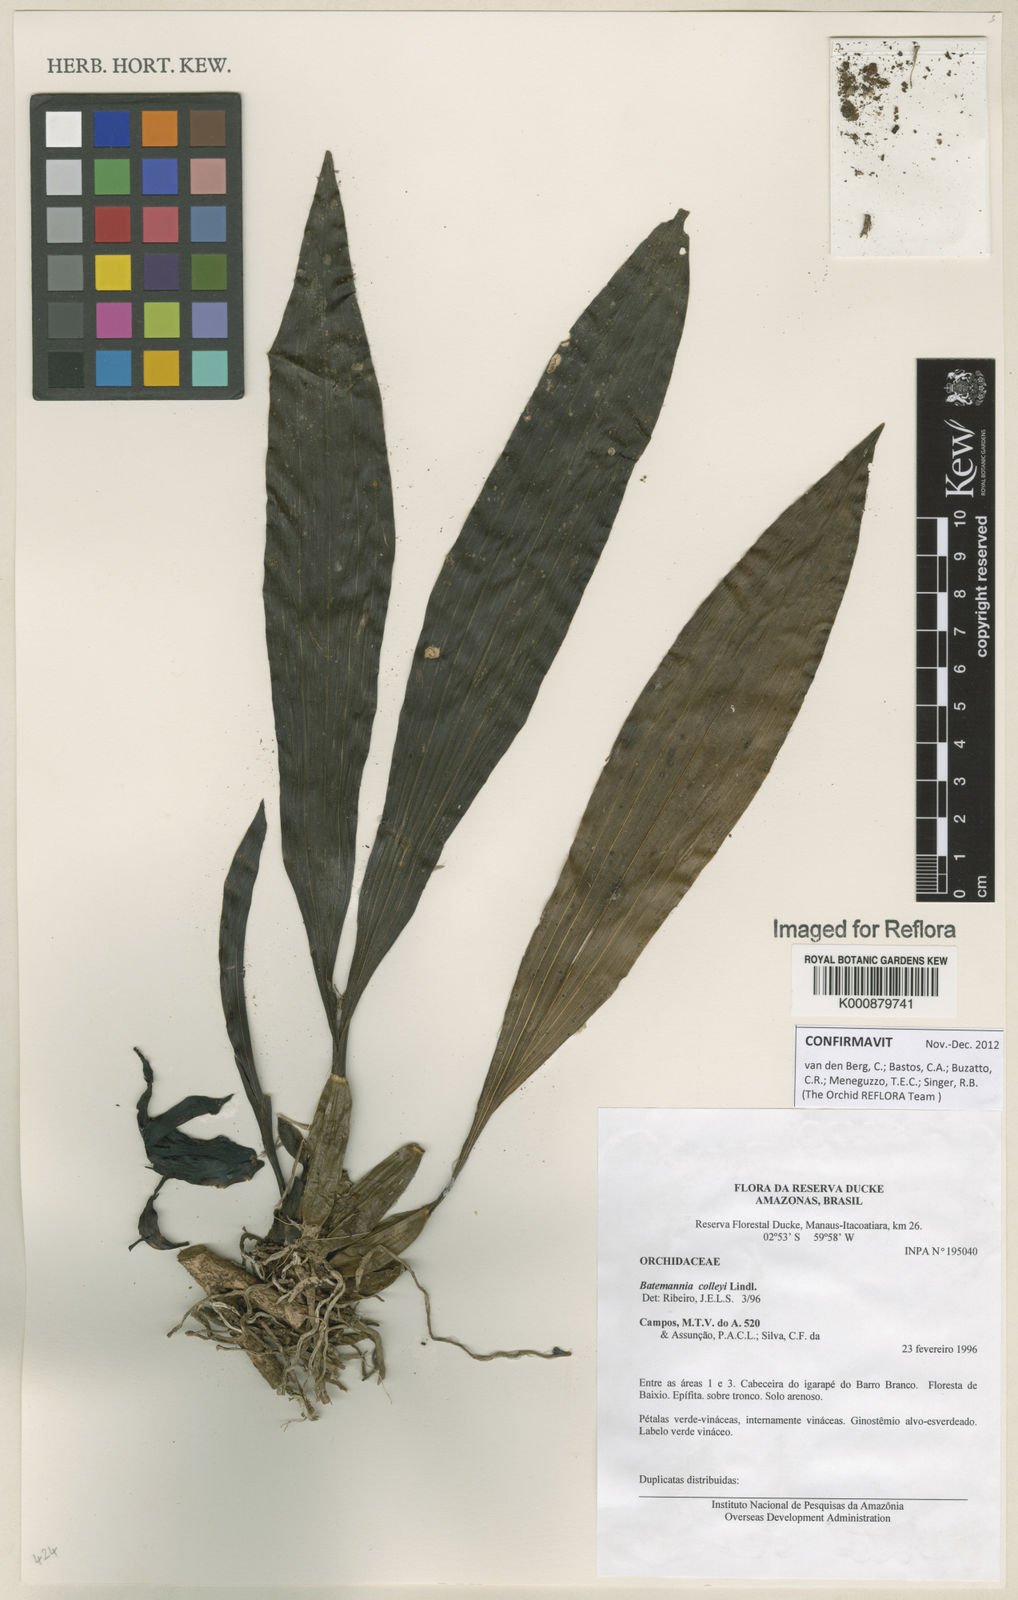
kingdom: Plantae
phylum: Tracheophyta
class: Liliopsida
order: Asparagales
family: Orchidaceae
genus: Batemannia
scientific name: Batemannia colleyi
